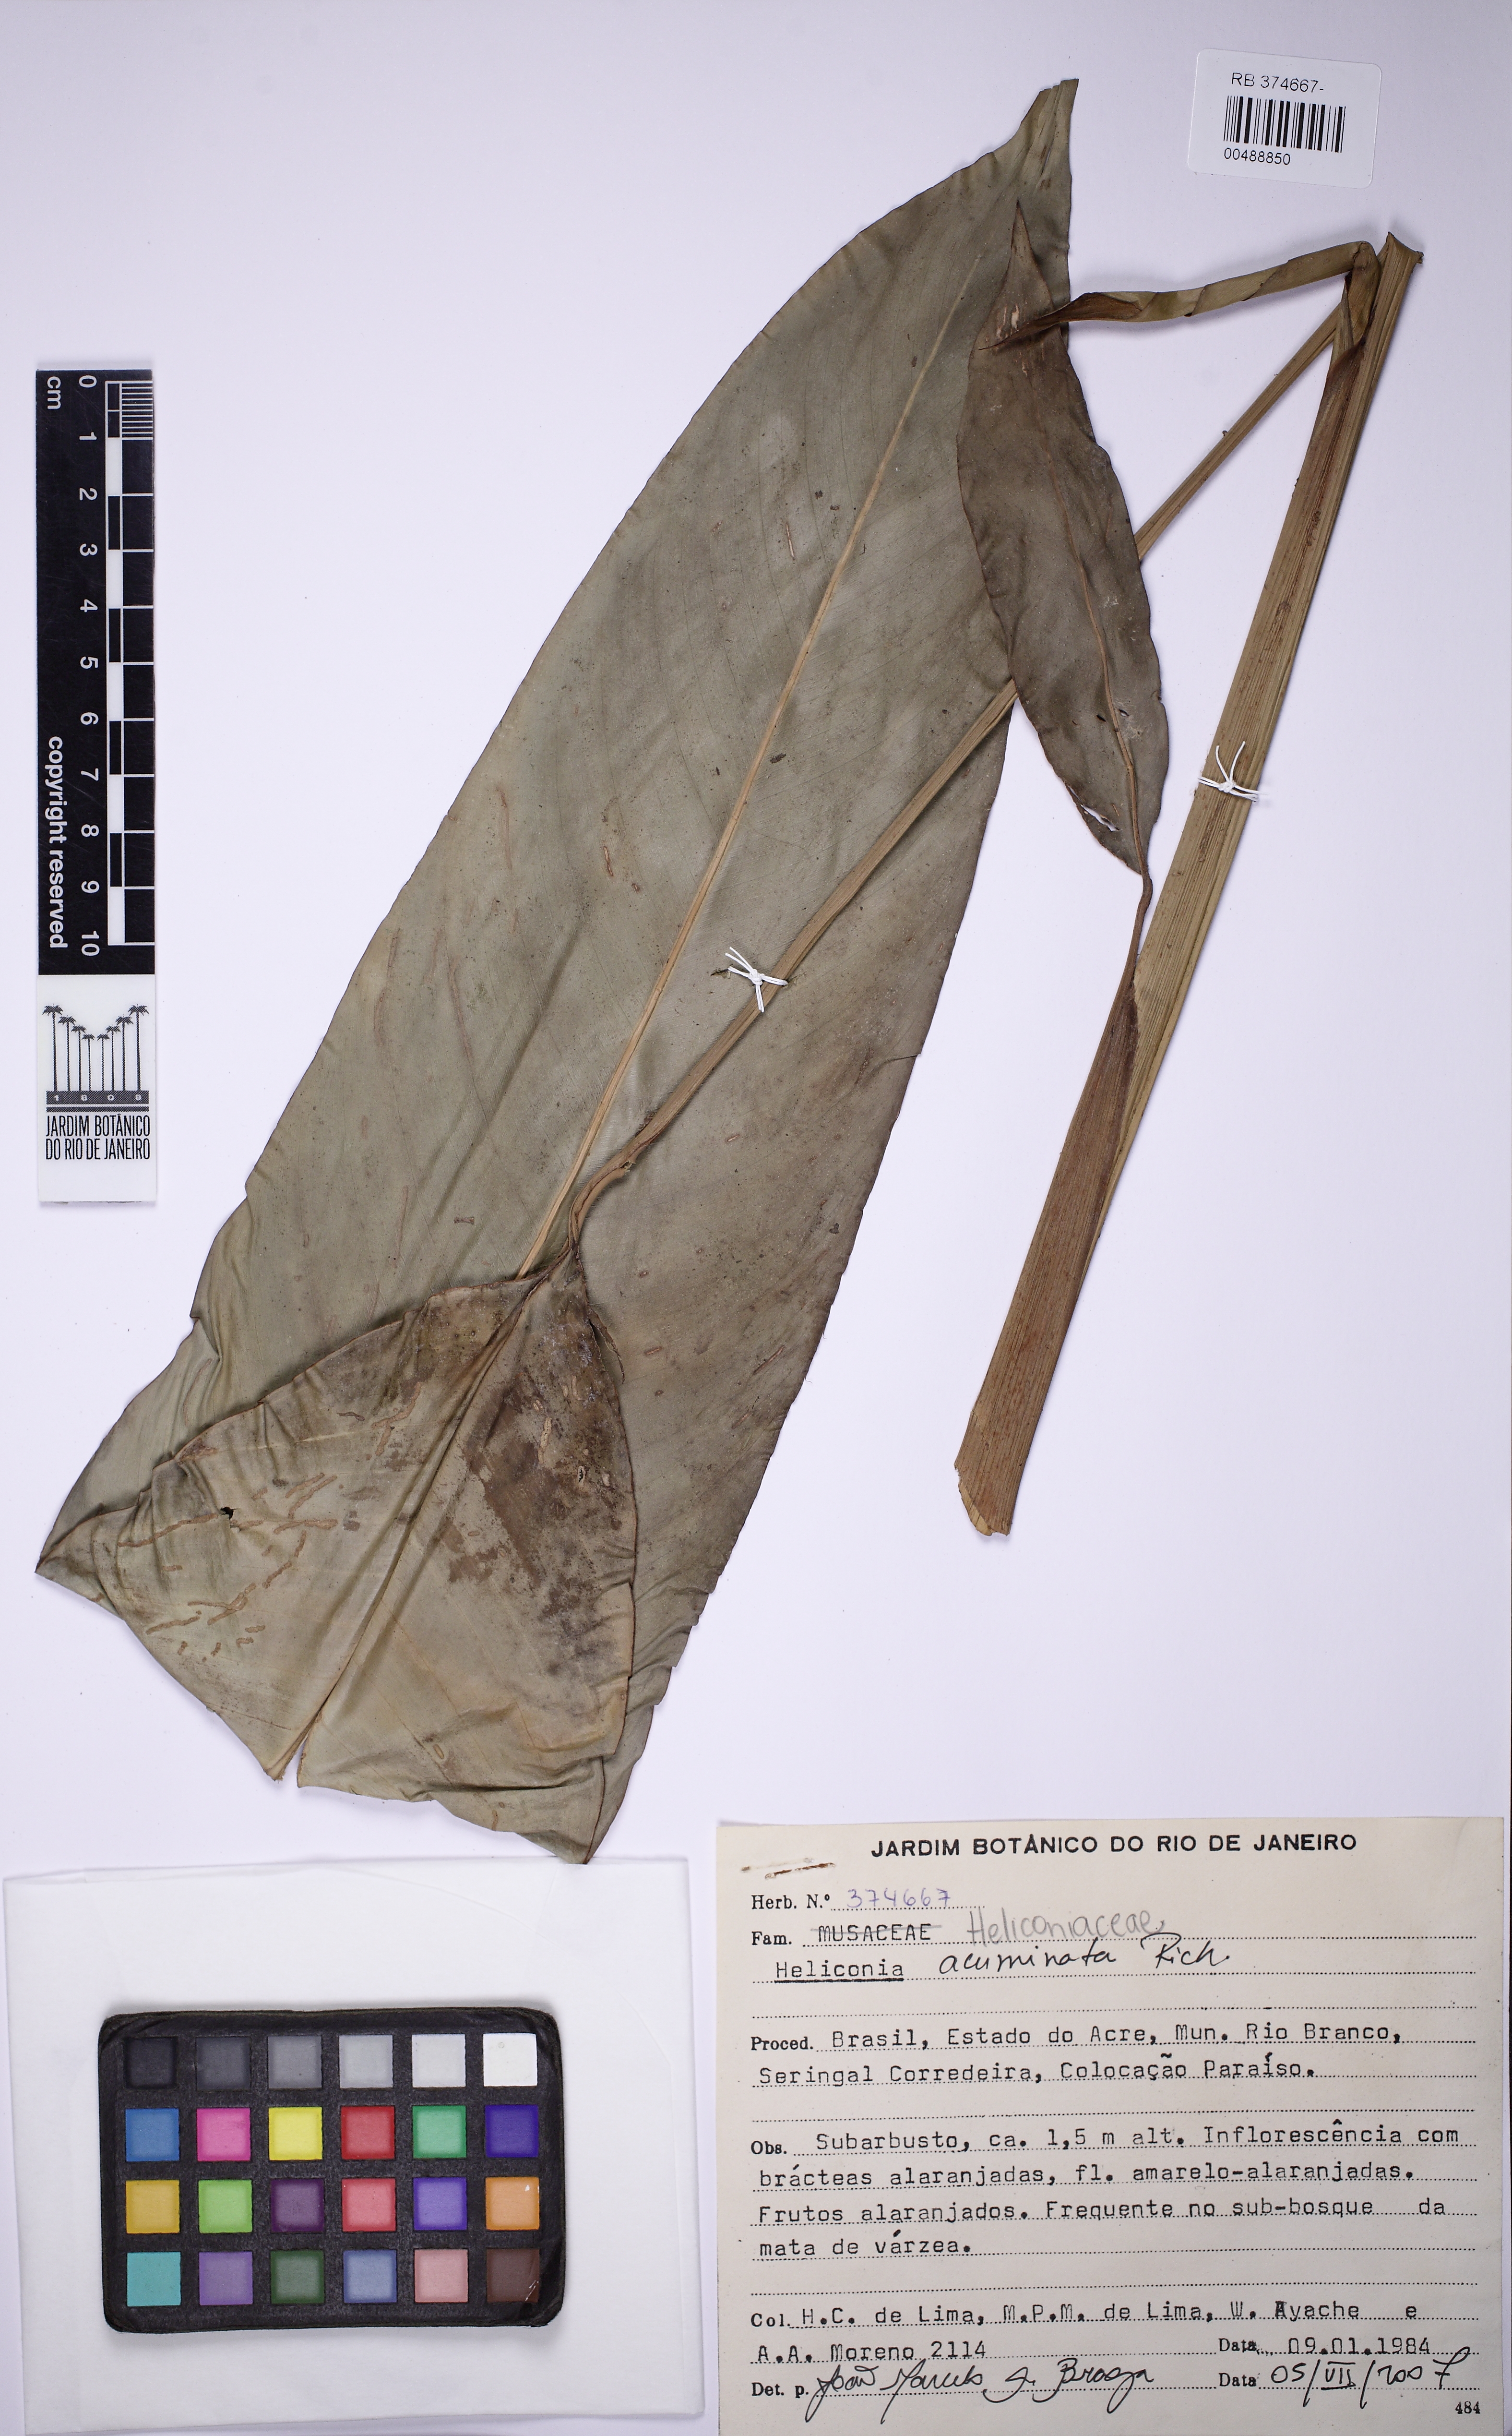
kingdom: Plantae
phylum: Tracheophyta
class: Liliopsida
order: Zingiberales
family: Heliconiaceae
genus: Heliconia
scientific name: Heliconia acuminata
